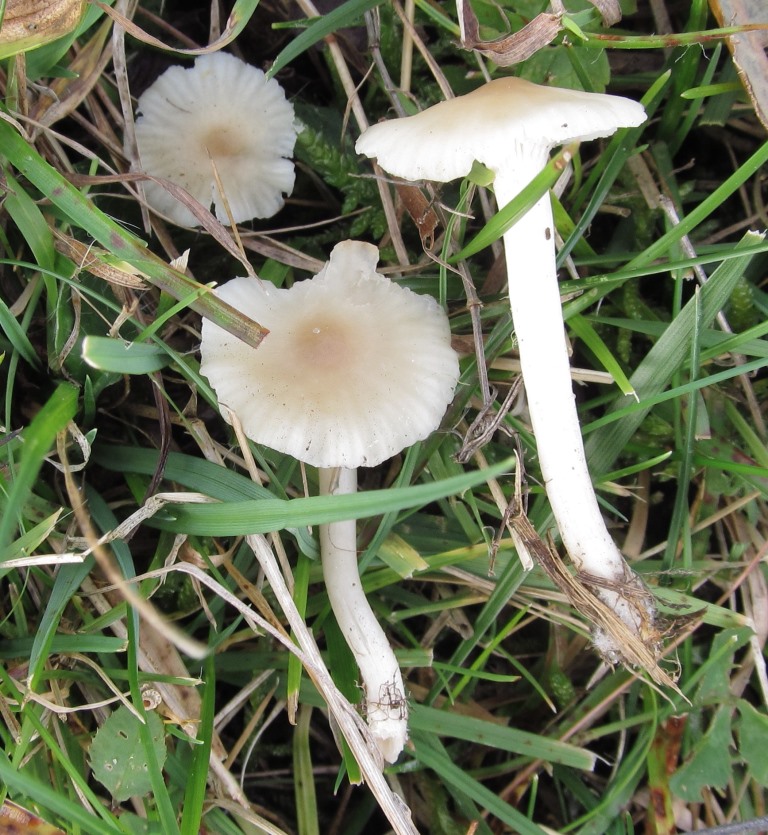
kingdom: Fungi
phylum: Basidiomycota
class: Agaricomycetes
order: Agaricales
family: Hygrophoraceae
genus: Cuphophyllus
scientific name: Cuphophyllus virgineus
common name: brunøjet vokshat
